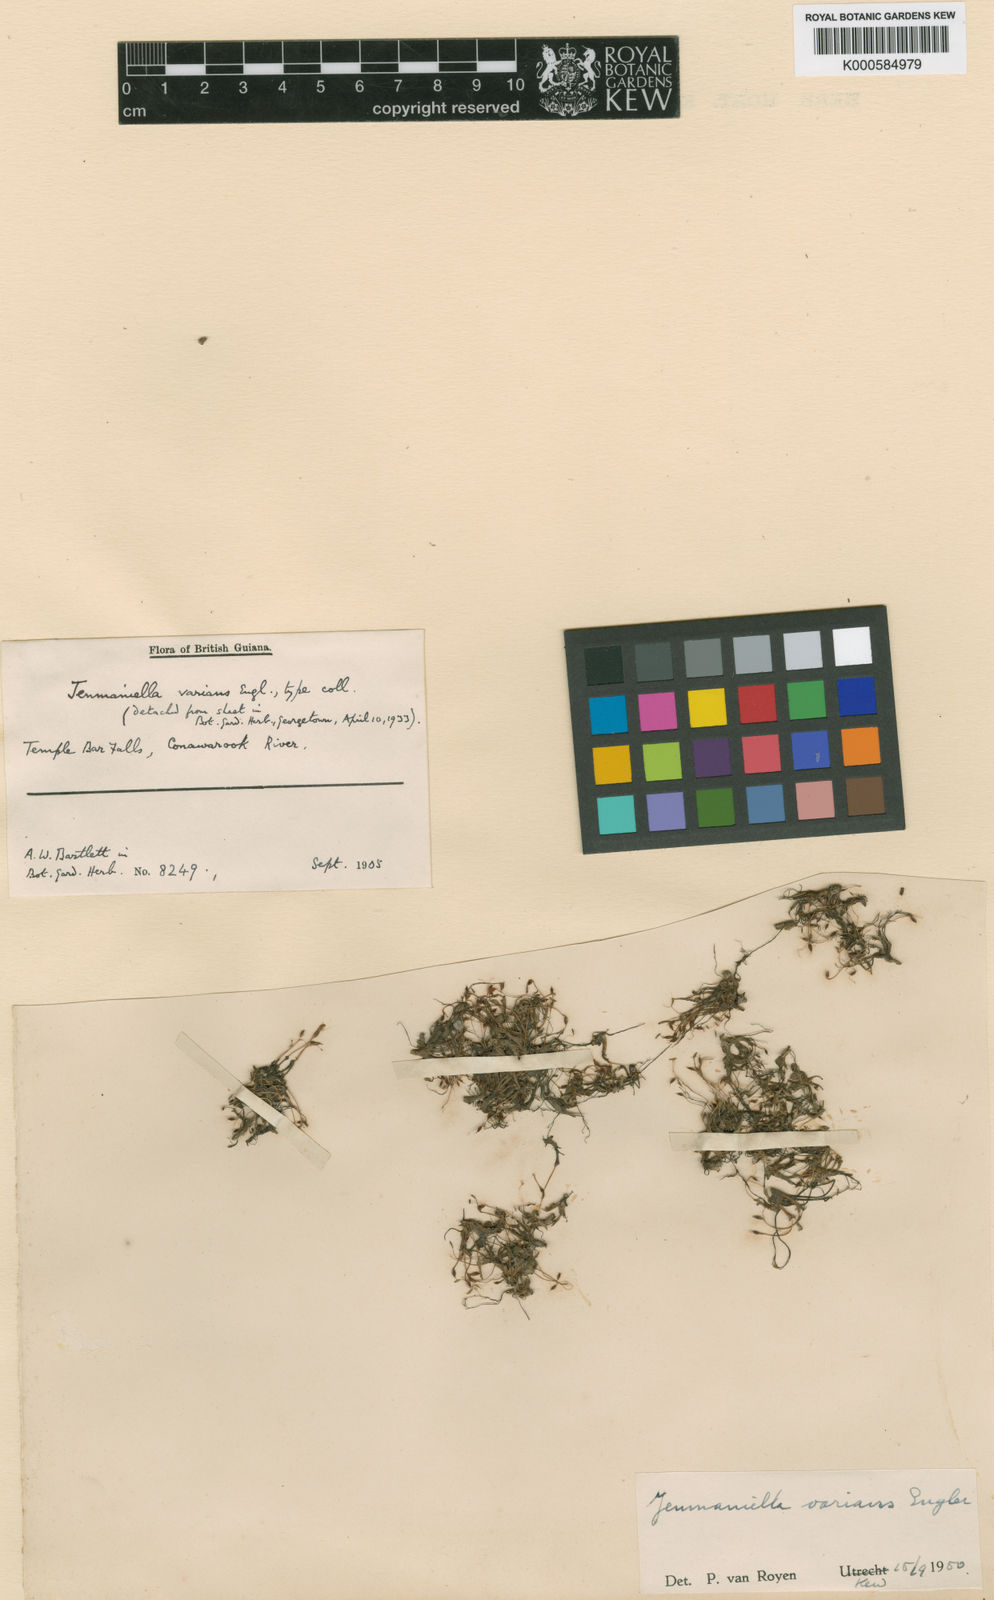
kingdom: Plantae
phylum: Tracheophyta
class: Magnoliopsida
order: Malpighiales
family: Podostemaceae
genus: Lophogyne
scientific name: Lophogyne varians
